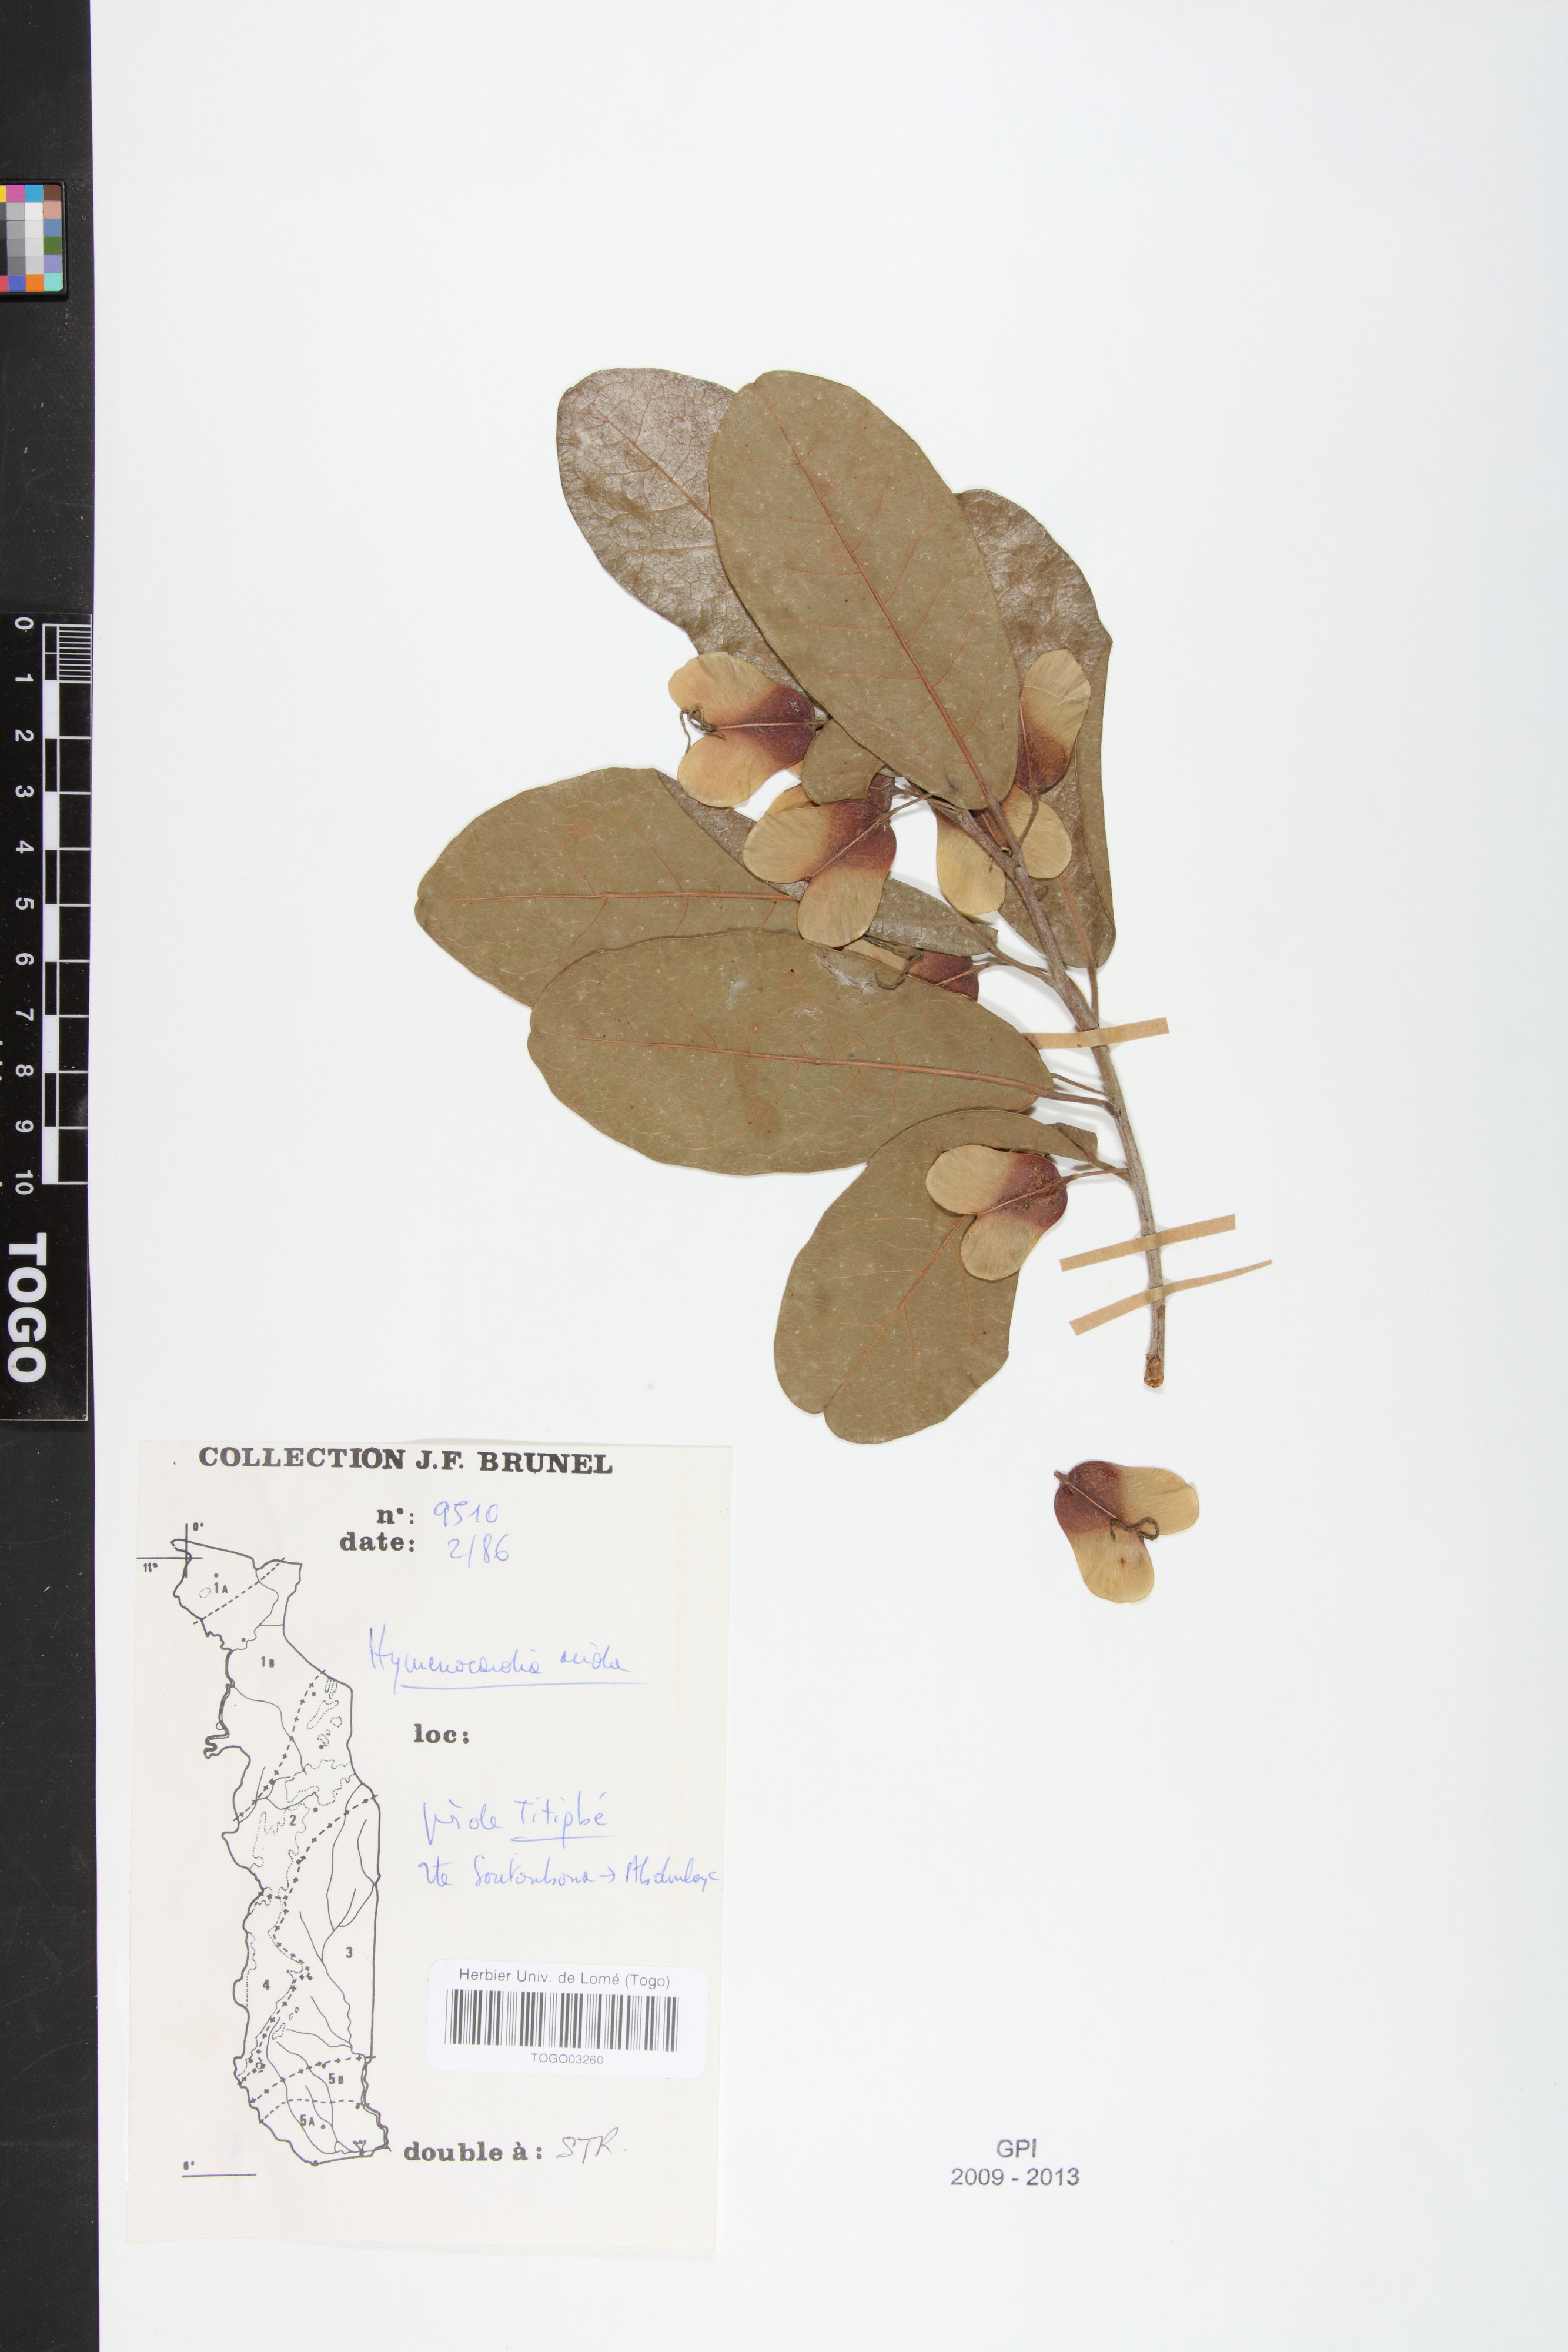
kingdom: Plantae
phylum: Tracheophyta
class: Magnoliopsida
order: Malpighiales
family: Phyllanthaceae
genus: Hymenocardia
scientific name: Hymenocardia acida
